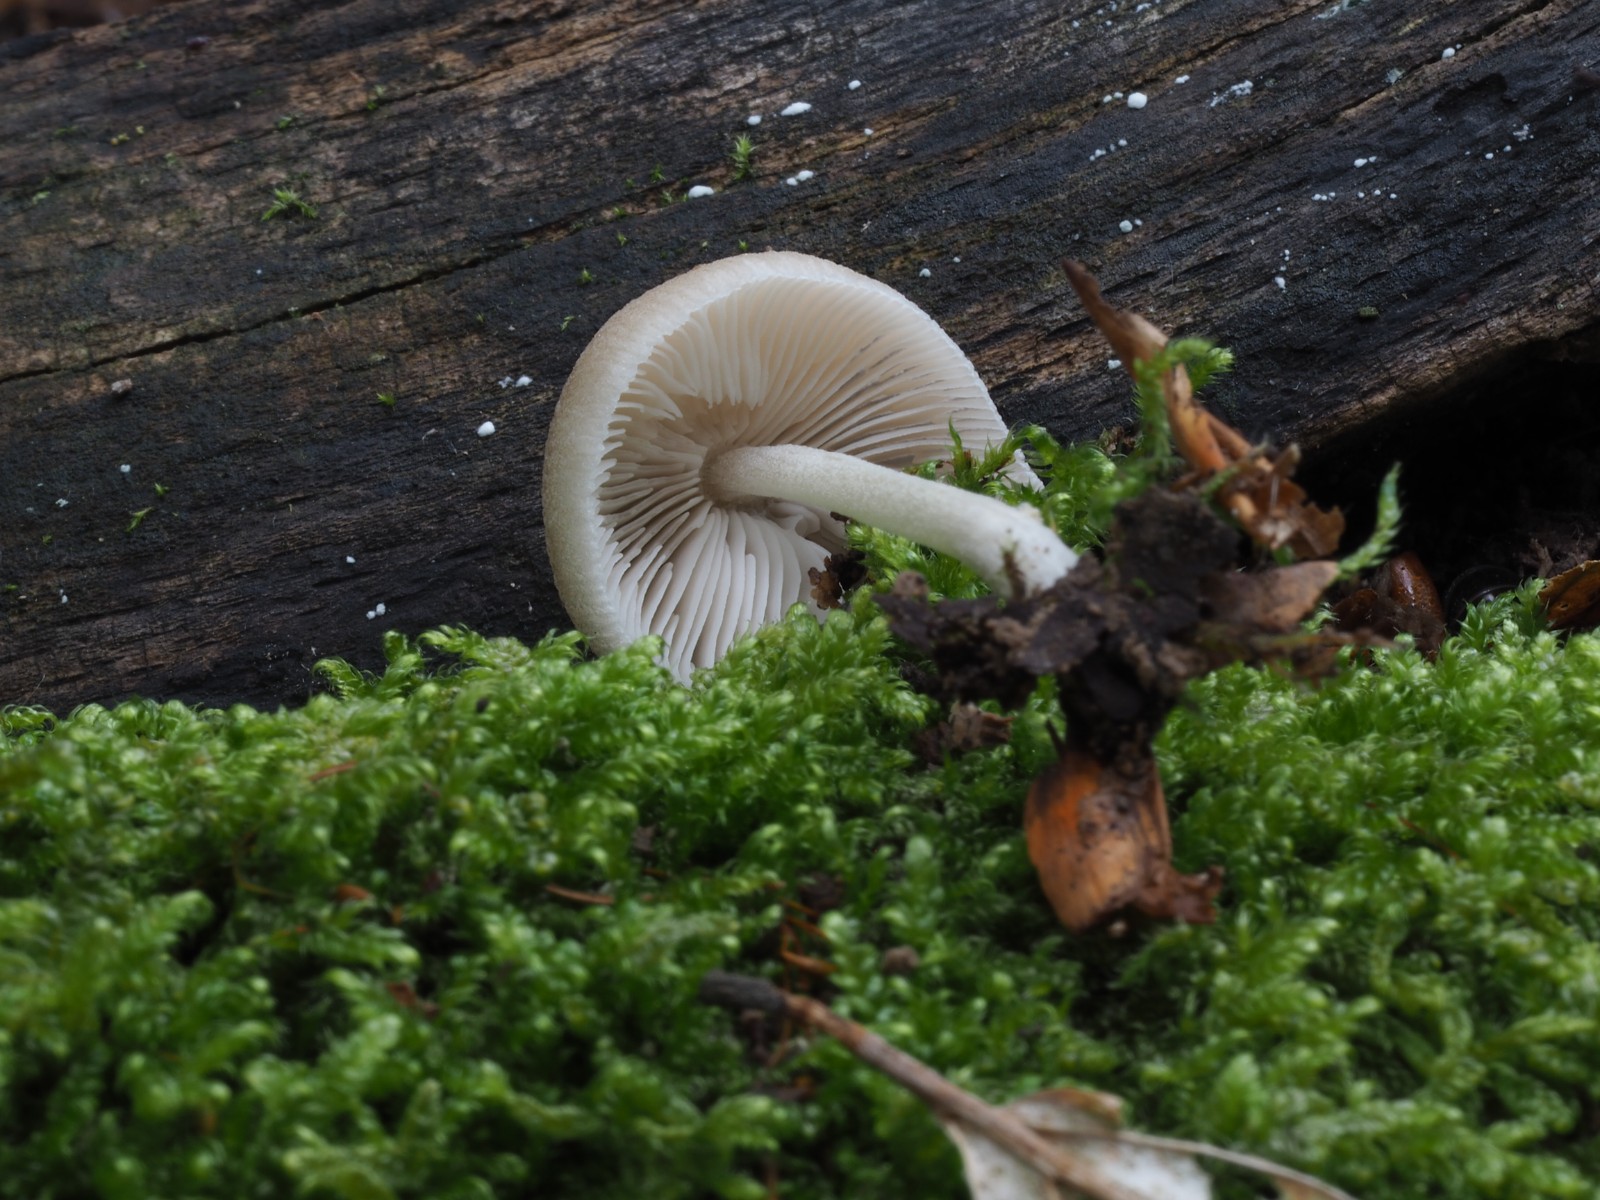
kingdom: Fungi
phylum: Basidiomycota
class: Agaricomycetes
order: Agaricales
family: Pluteaceae
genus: Pluteus
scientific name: Pluteus
